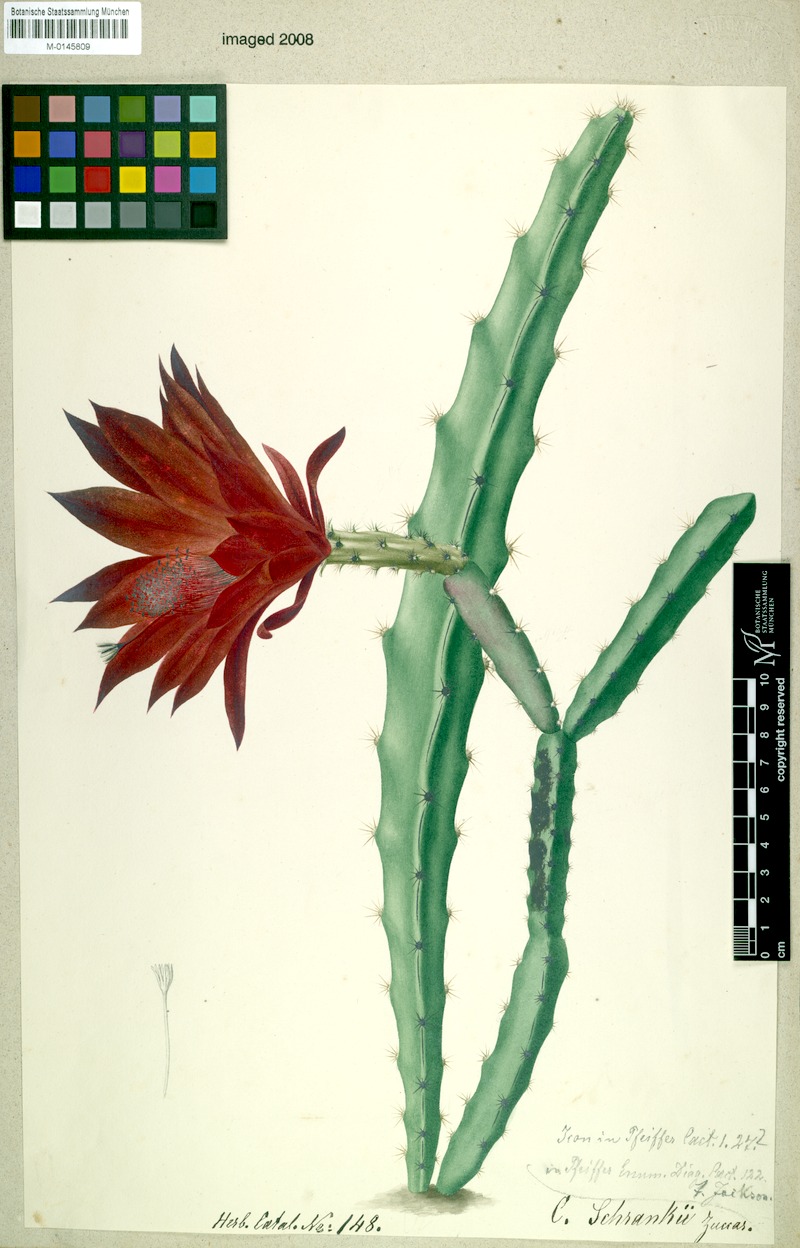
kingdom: Plantae
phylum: Tracheophyta
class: Magnoliopsida
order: Caryophyllales
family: Cactaceae
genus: Disocactus
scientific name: Disocactus speciosus
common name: Sun cereus
